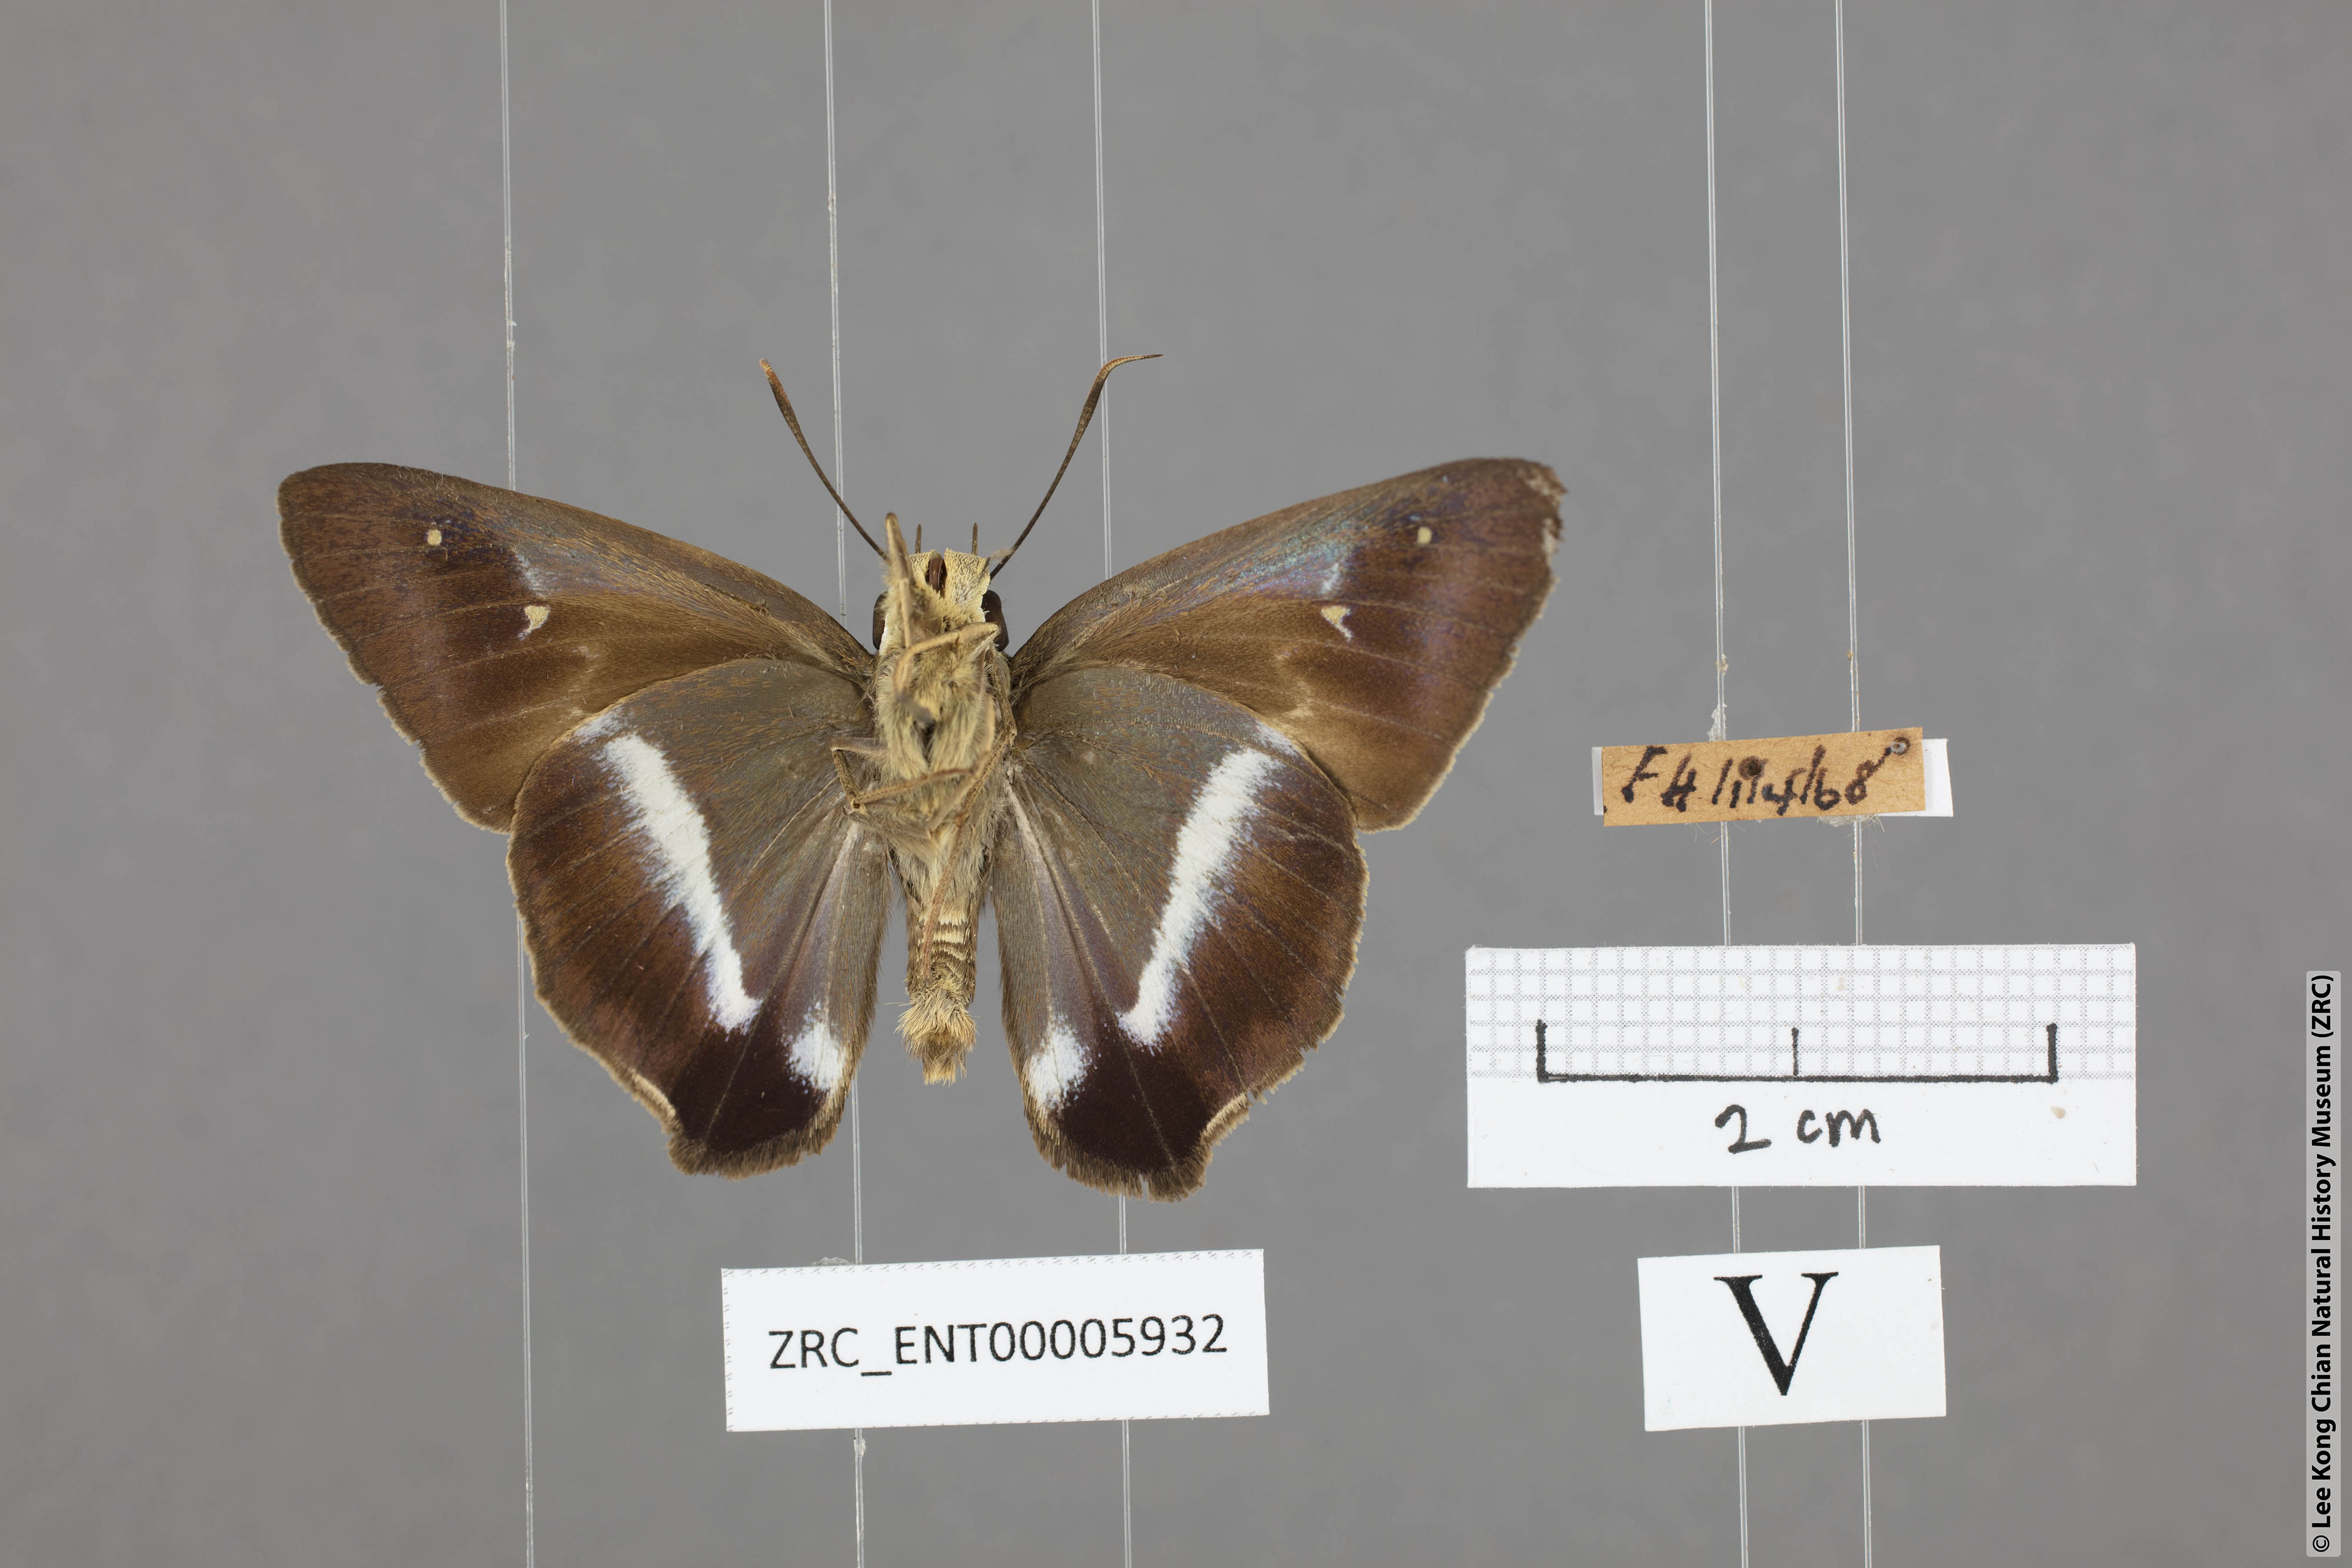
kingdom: Animalia
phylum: Arthropoda
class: Insecta
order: Lepidoptera
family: Hesperiidae
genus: Hasora
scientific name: Hasora vitta
